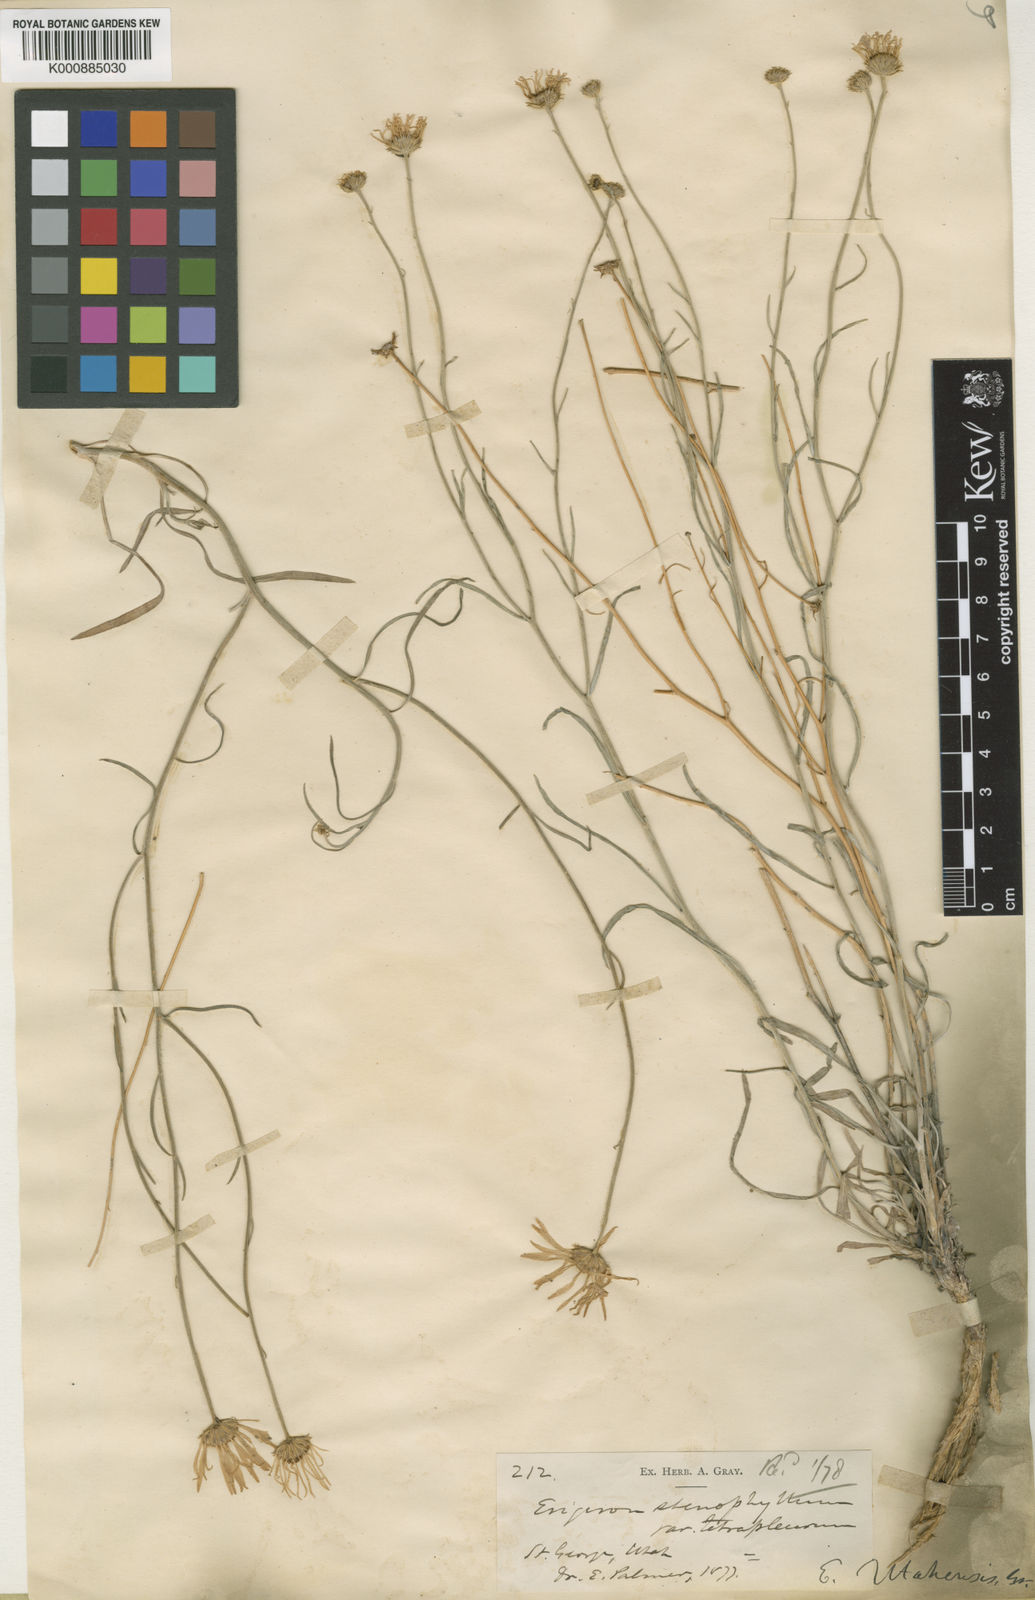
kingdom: Plantae
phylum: Tracheophyta
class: Magnoliopsida
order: Asterales
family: Asteraceae
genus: Erigeron
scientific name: Erigeron
